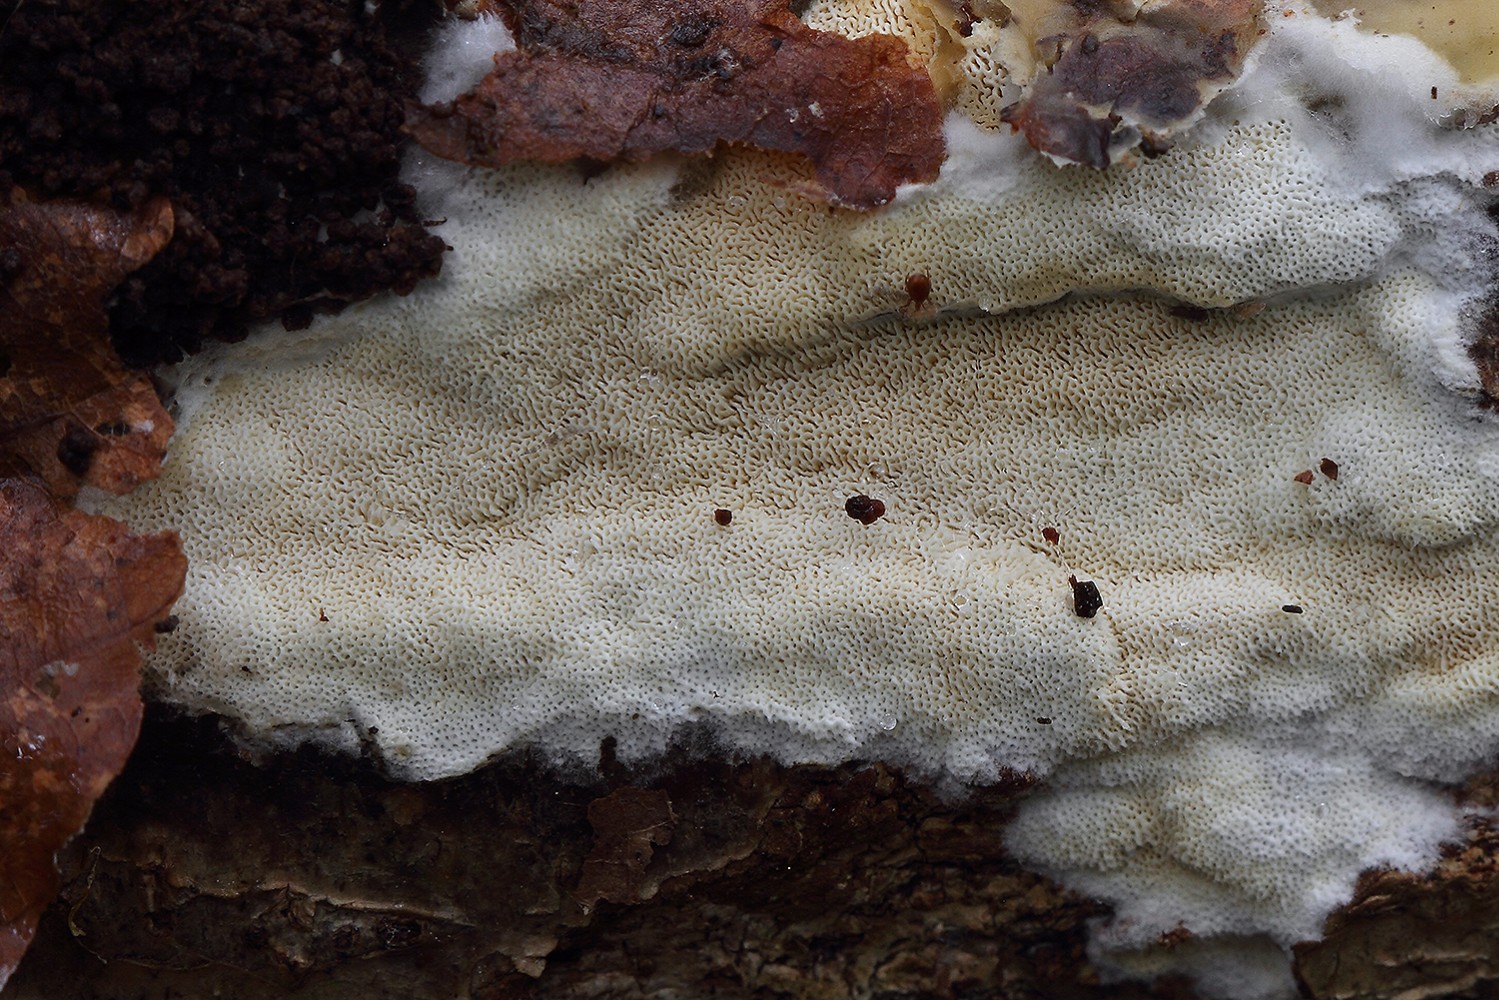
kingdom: Fungi
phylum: Basidiomycota
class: Agaricomycetes
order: Hymenochaetales
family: Schizoporaceae
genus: Xylodon
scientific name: Xylodon subtropicus
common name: labyrint-tandsvamp
